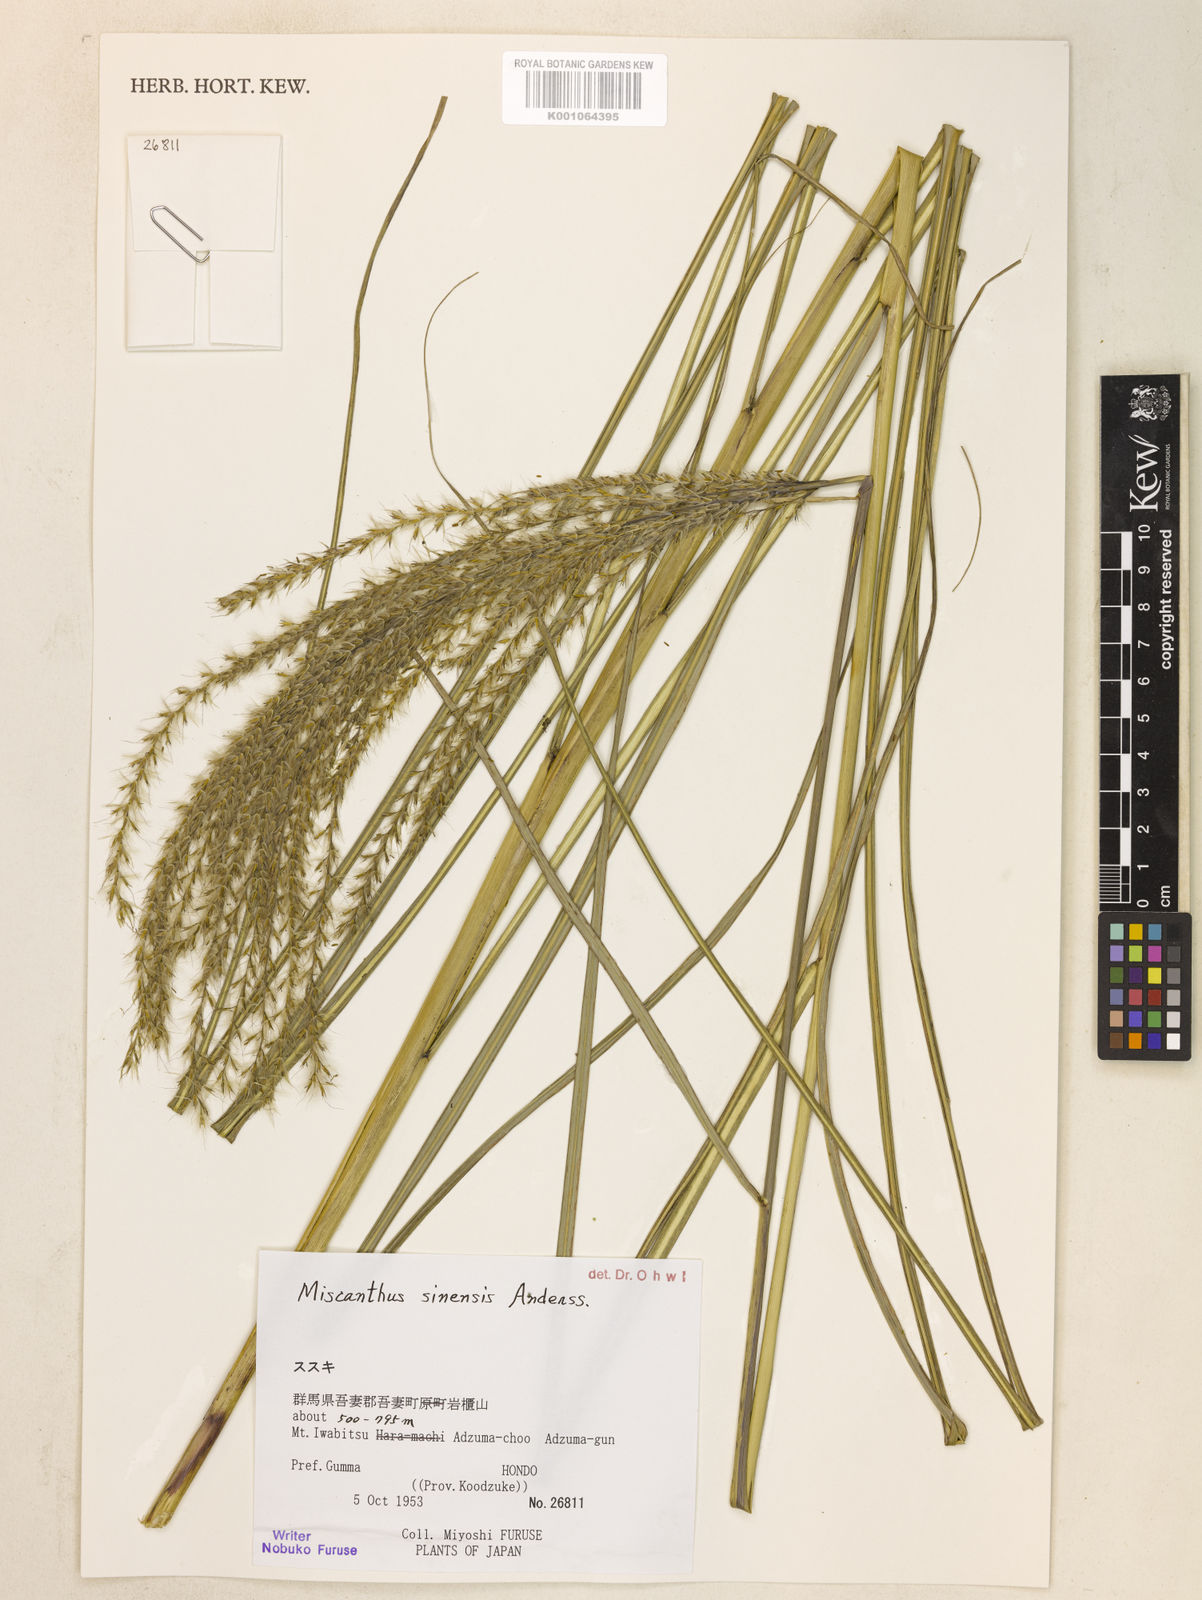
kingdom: Plantae
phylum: Tracheophyta
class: Liliopsida
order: Poales
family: Poaceae
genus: Miscanthus
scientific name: Miscanthus sinensis
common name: Chinese silvergrass
